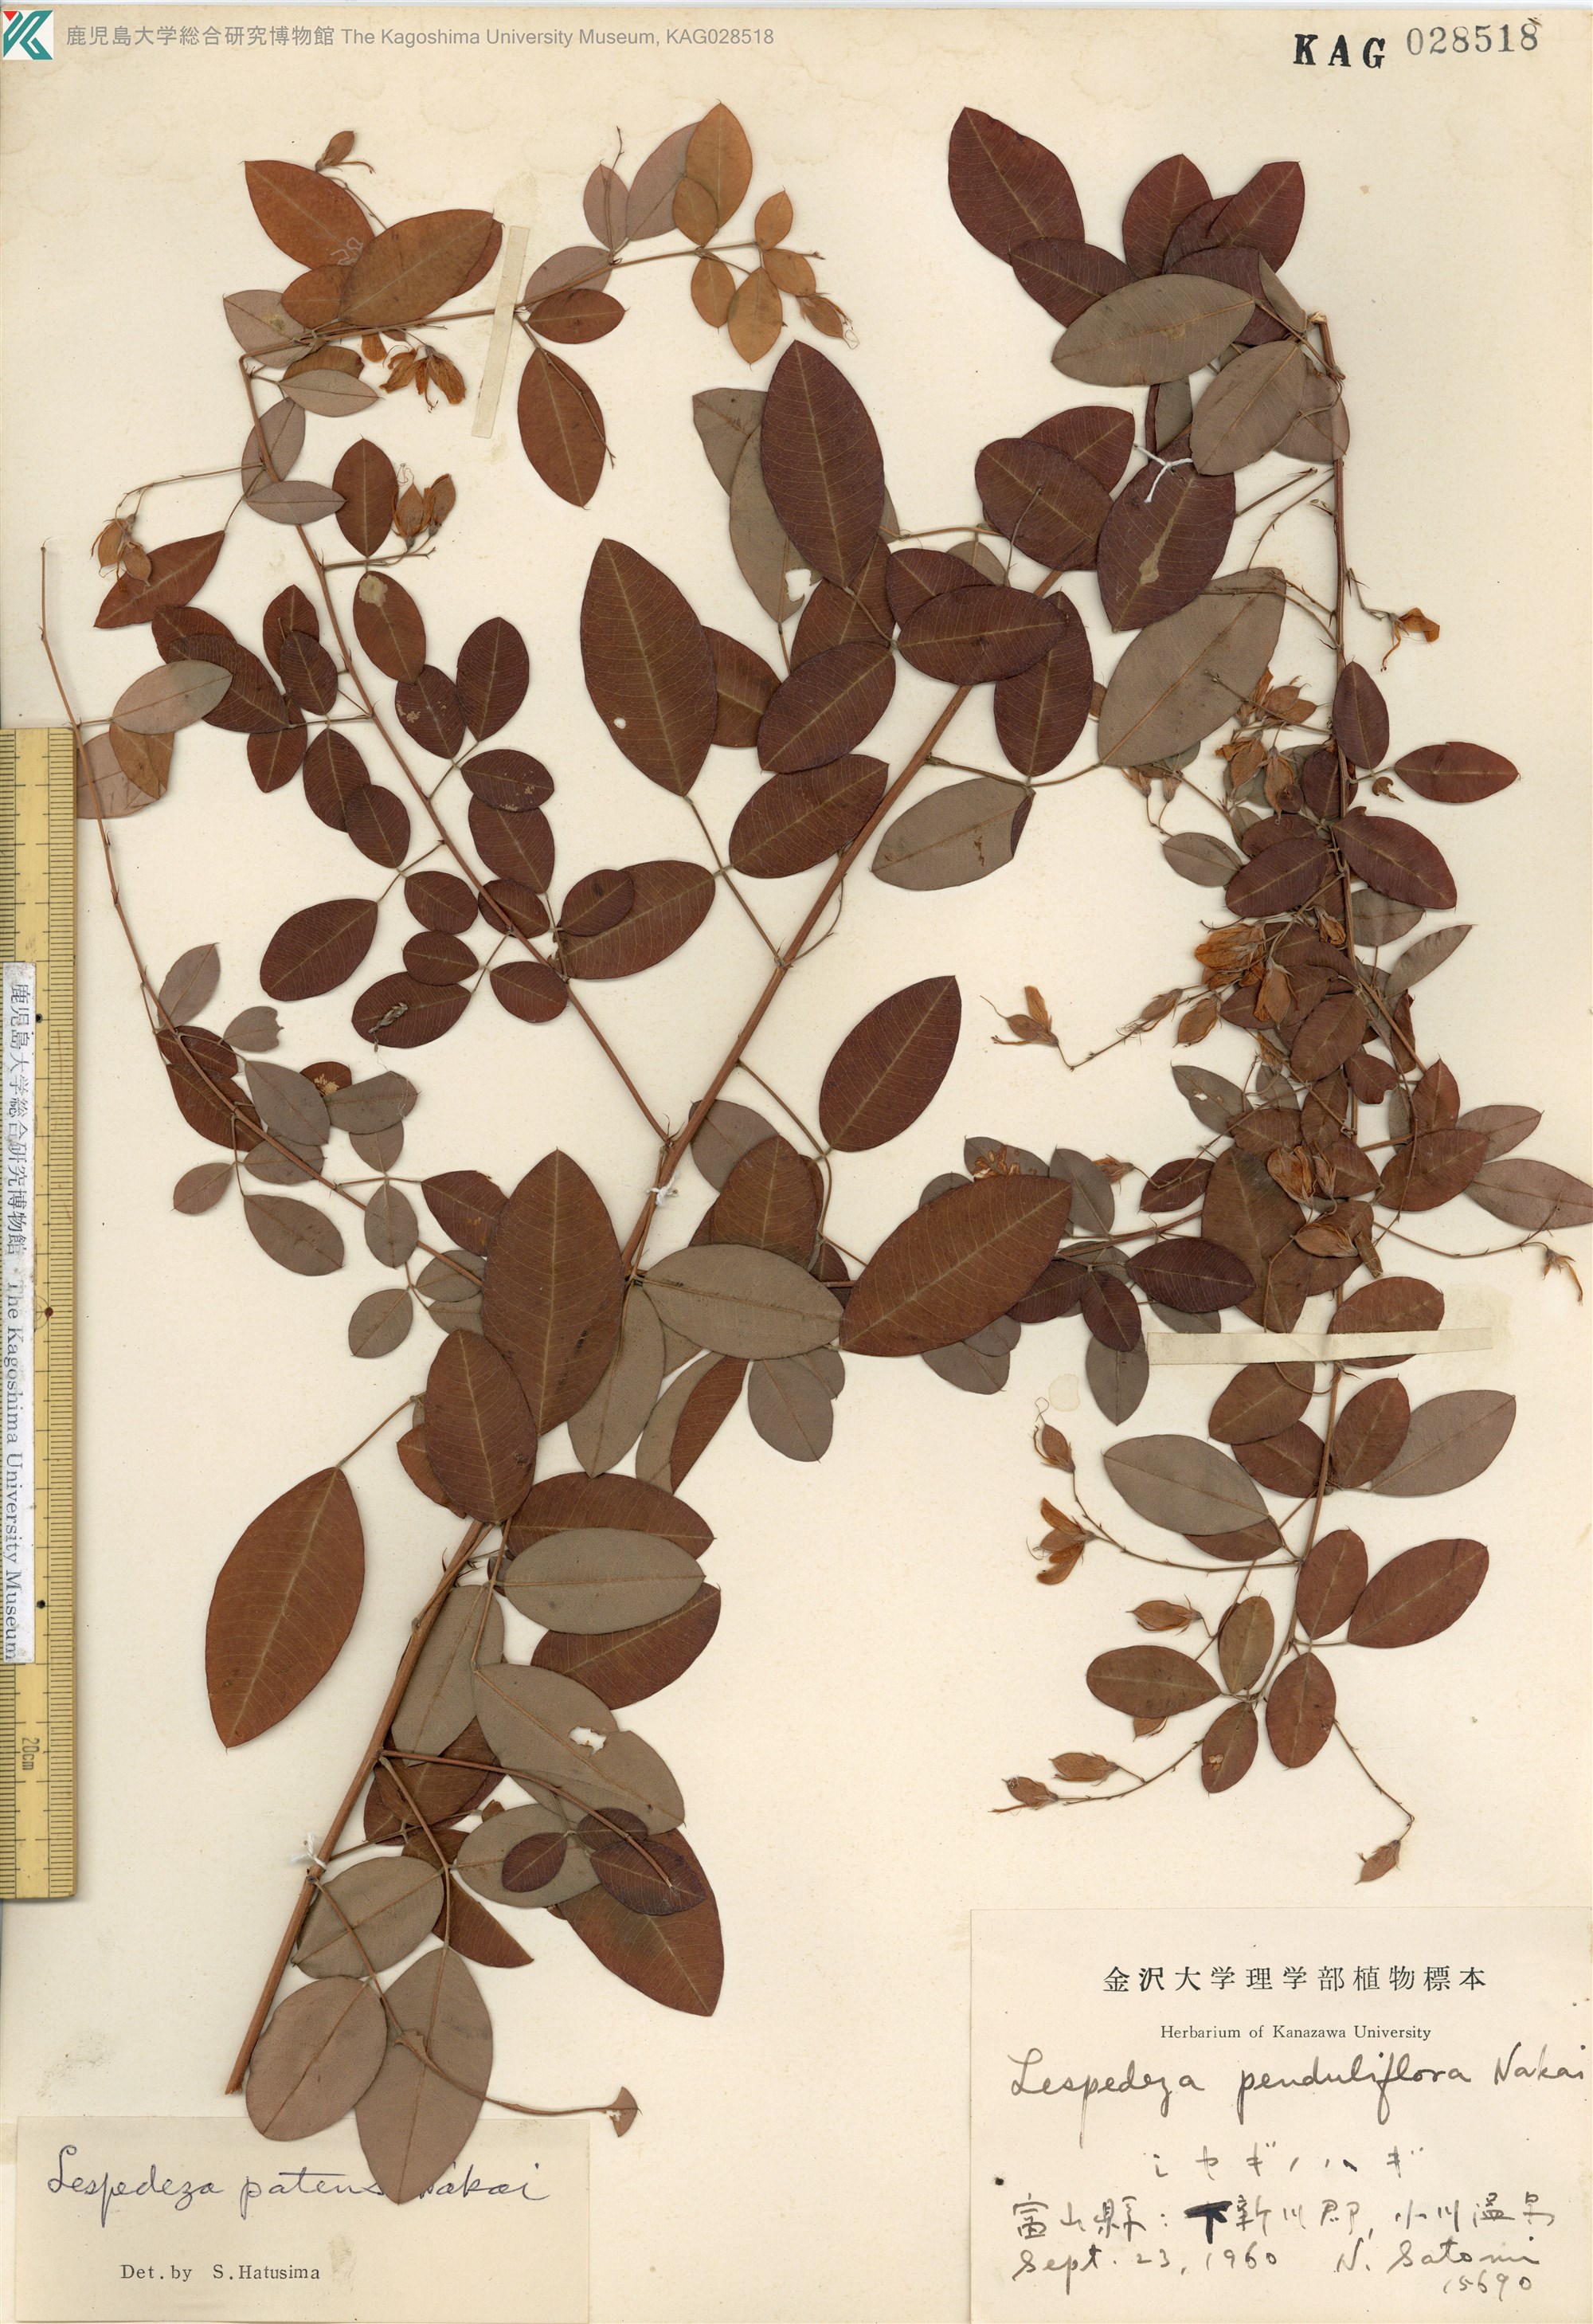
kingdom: Plantae
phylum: Tracheophyta
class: Magnoliopsida
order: Fabales
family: Fabaceae
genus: Lespedeza
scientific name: Lespedeza thunbergii
